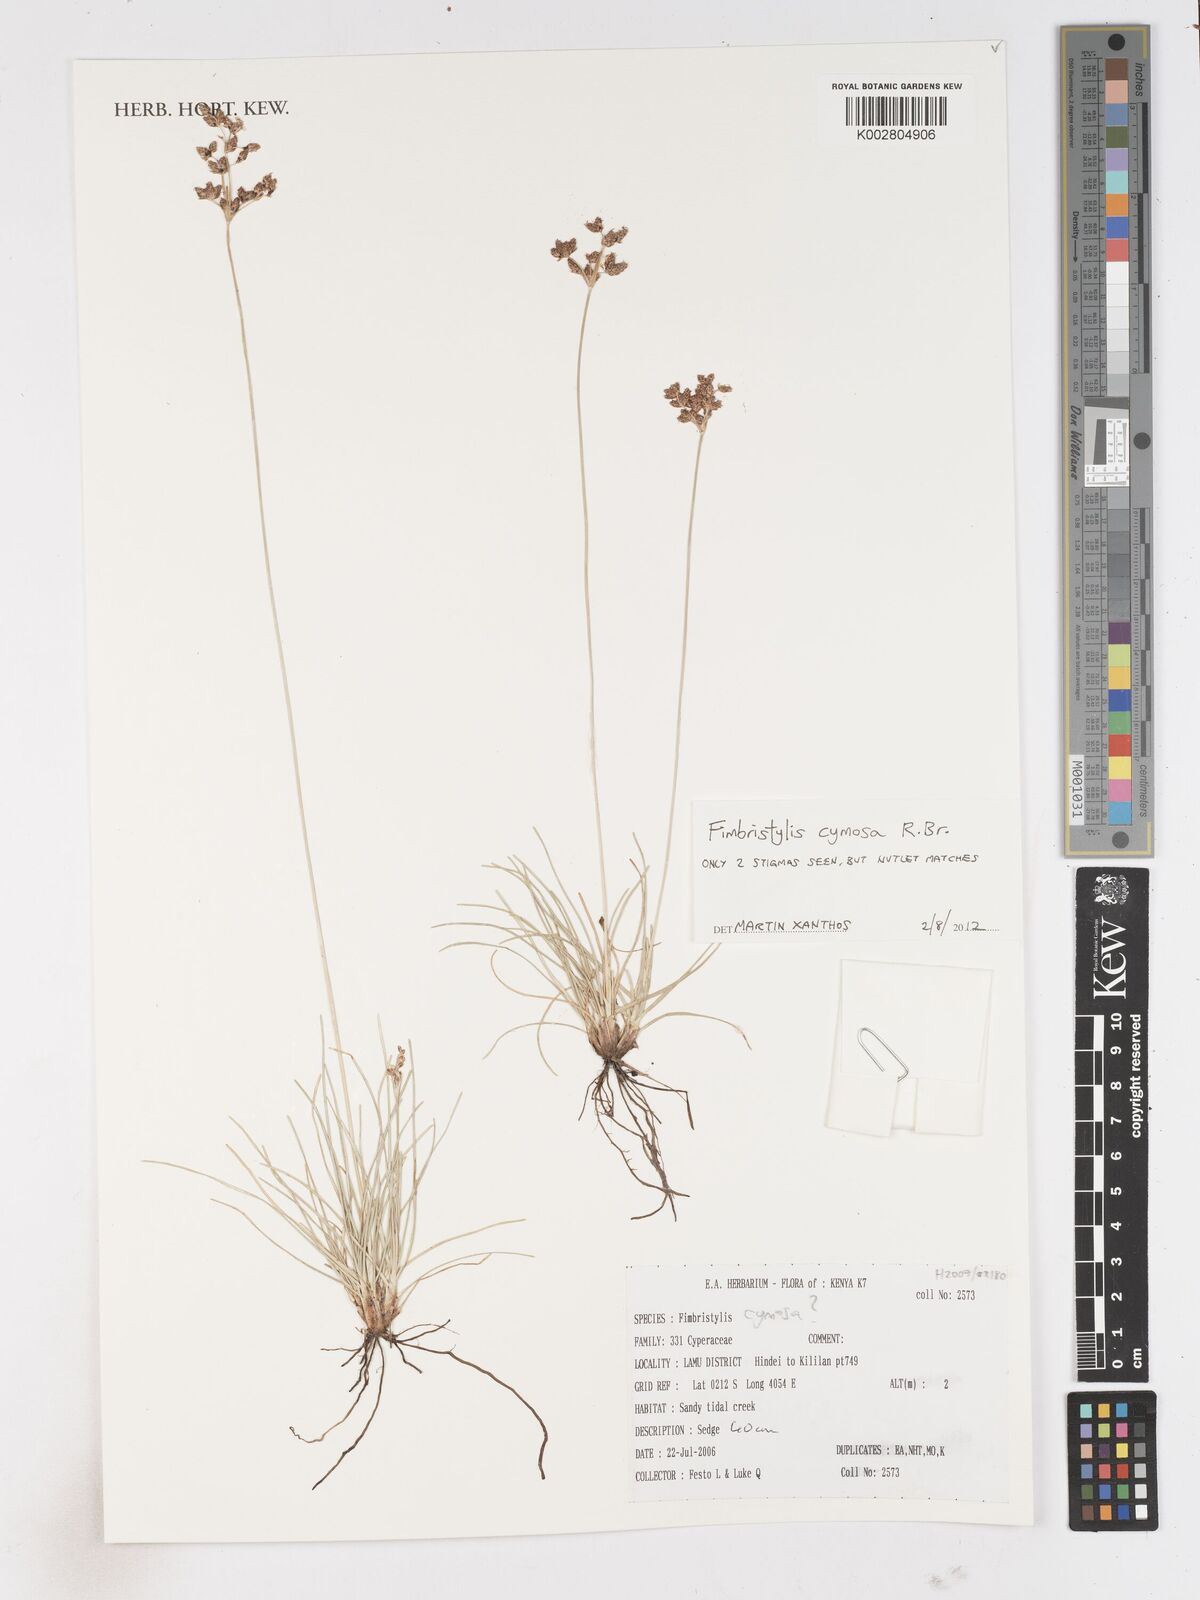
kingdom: Plantae
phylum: Tracheophyta
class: Liliopsida
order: Poales
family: Cyperaceae
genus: Fimbristylis
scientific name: Fimbristylis cymosa
